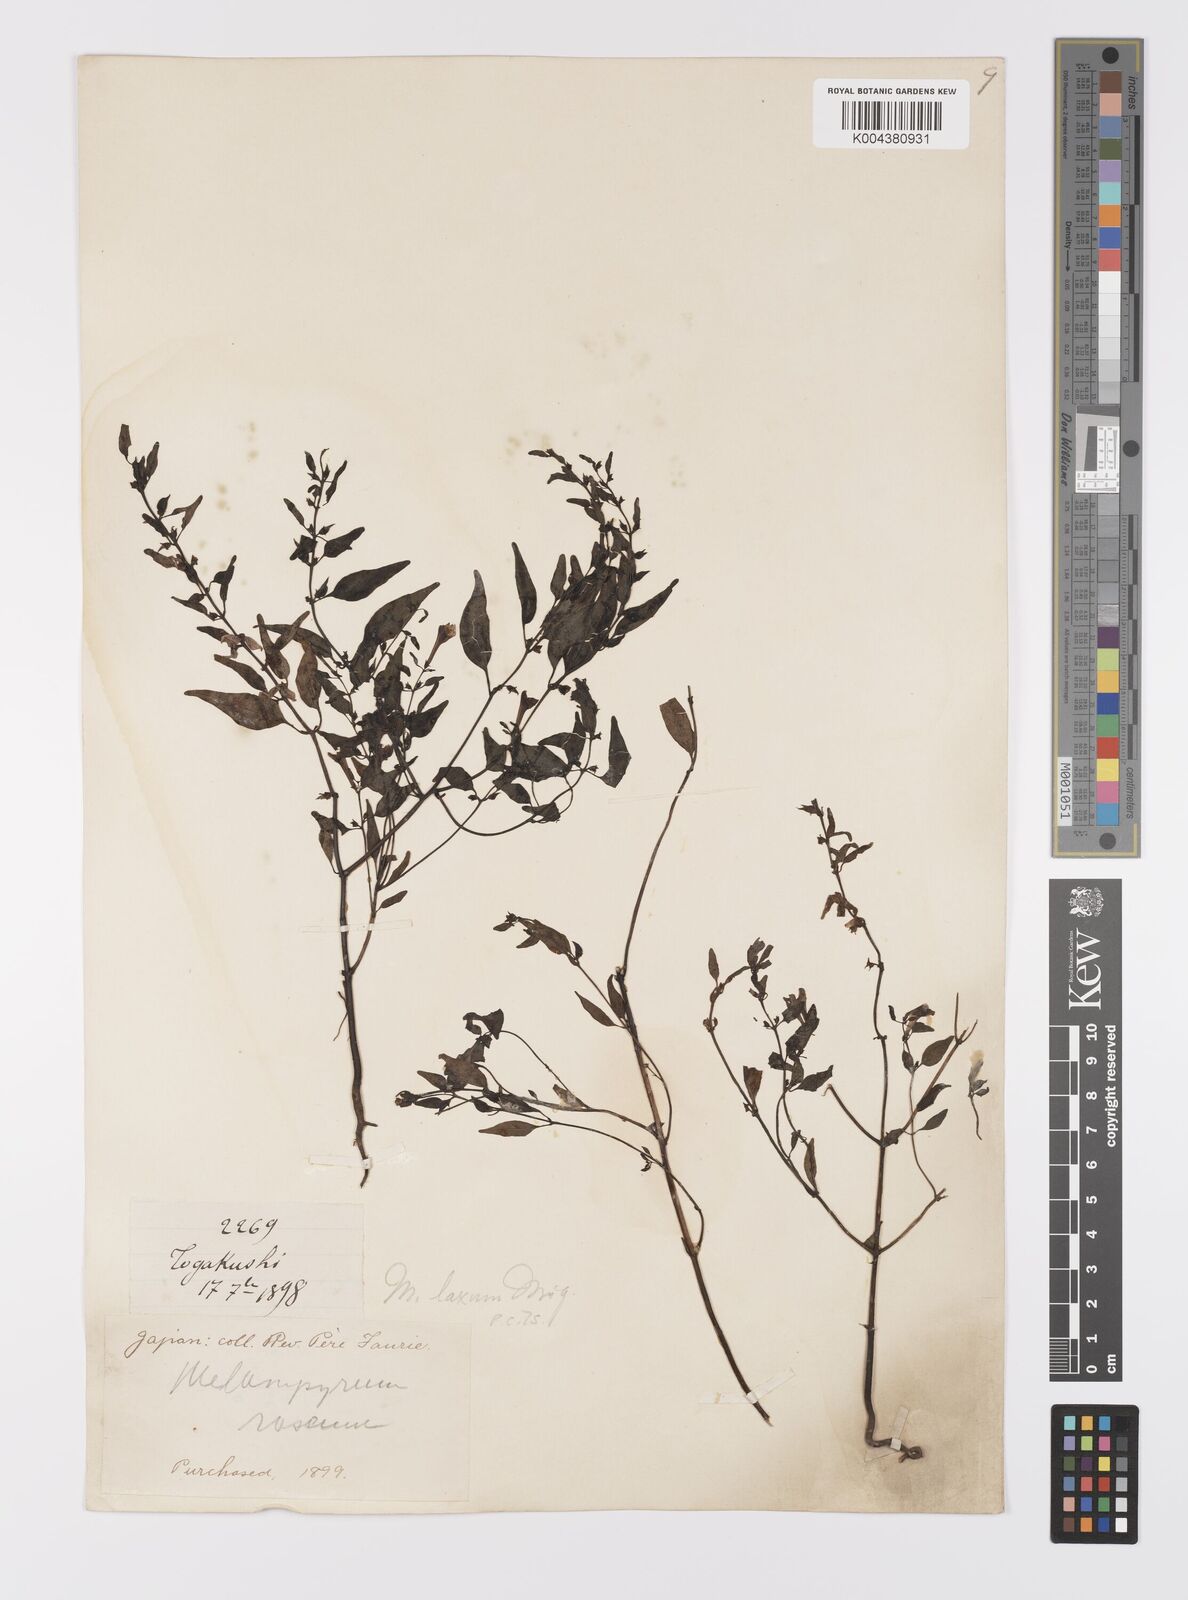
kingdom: Plantae
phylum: Tracheophyta
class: Magnoliopsida
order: Lamiales
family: Orobanchaceae
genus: Melampyrum
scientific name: Melampyrum laxum
